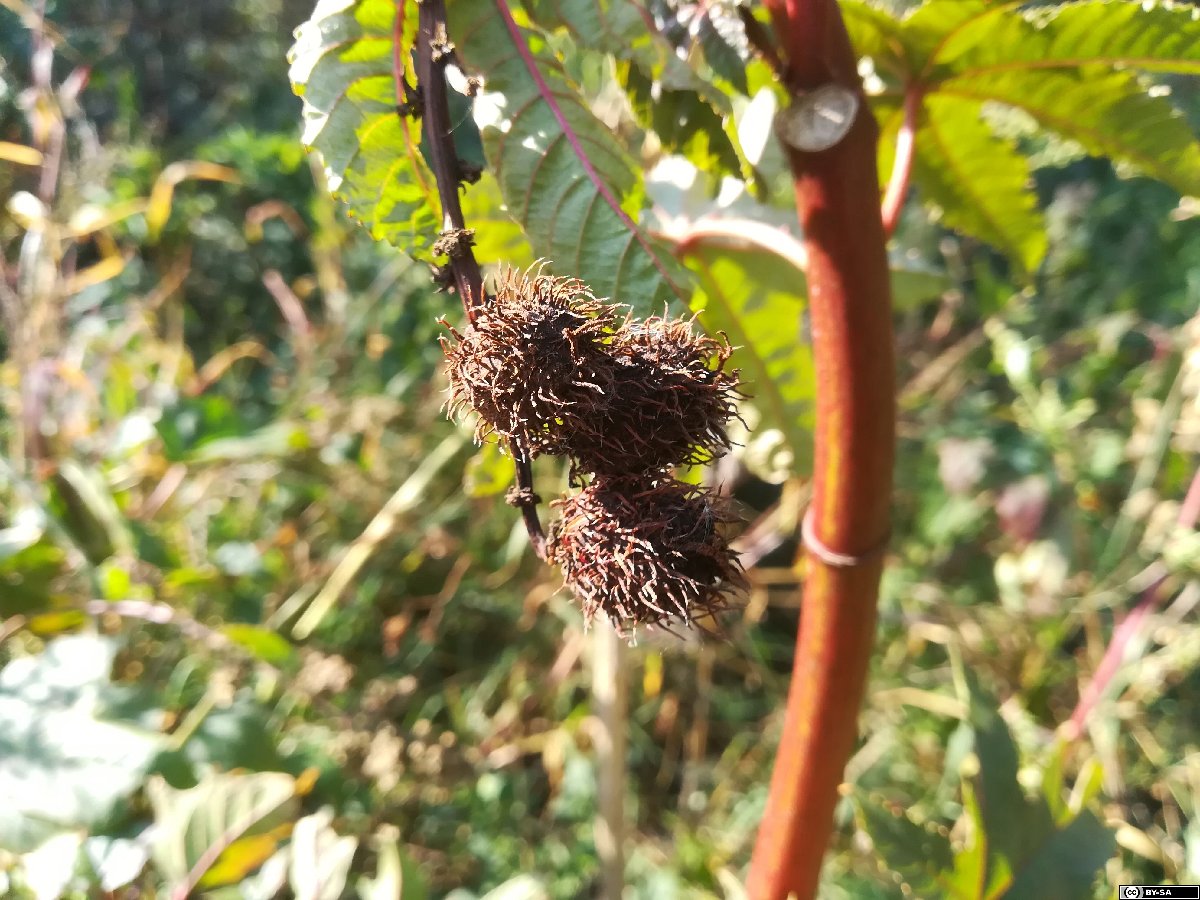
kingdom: Plantae
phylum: Tracheophyta
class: Magnoliopsida
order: Malpighiales
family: Euphorbiaceae
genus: Ricinus
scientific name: Ricinus communis
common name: Castor-oil-plant
